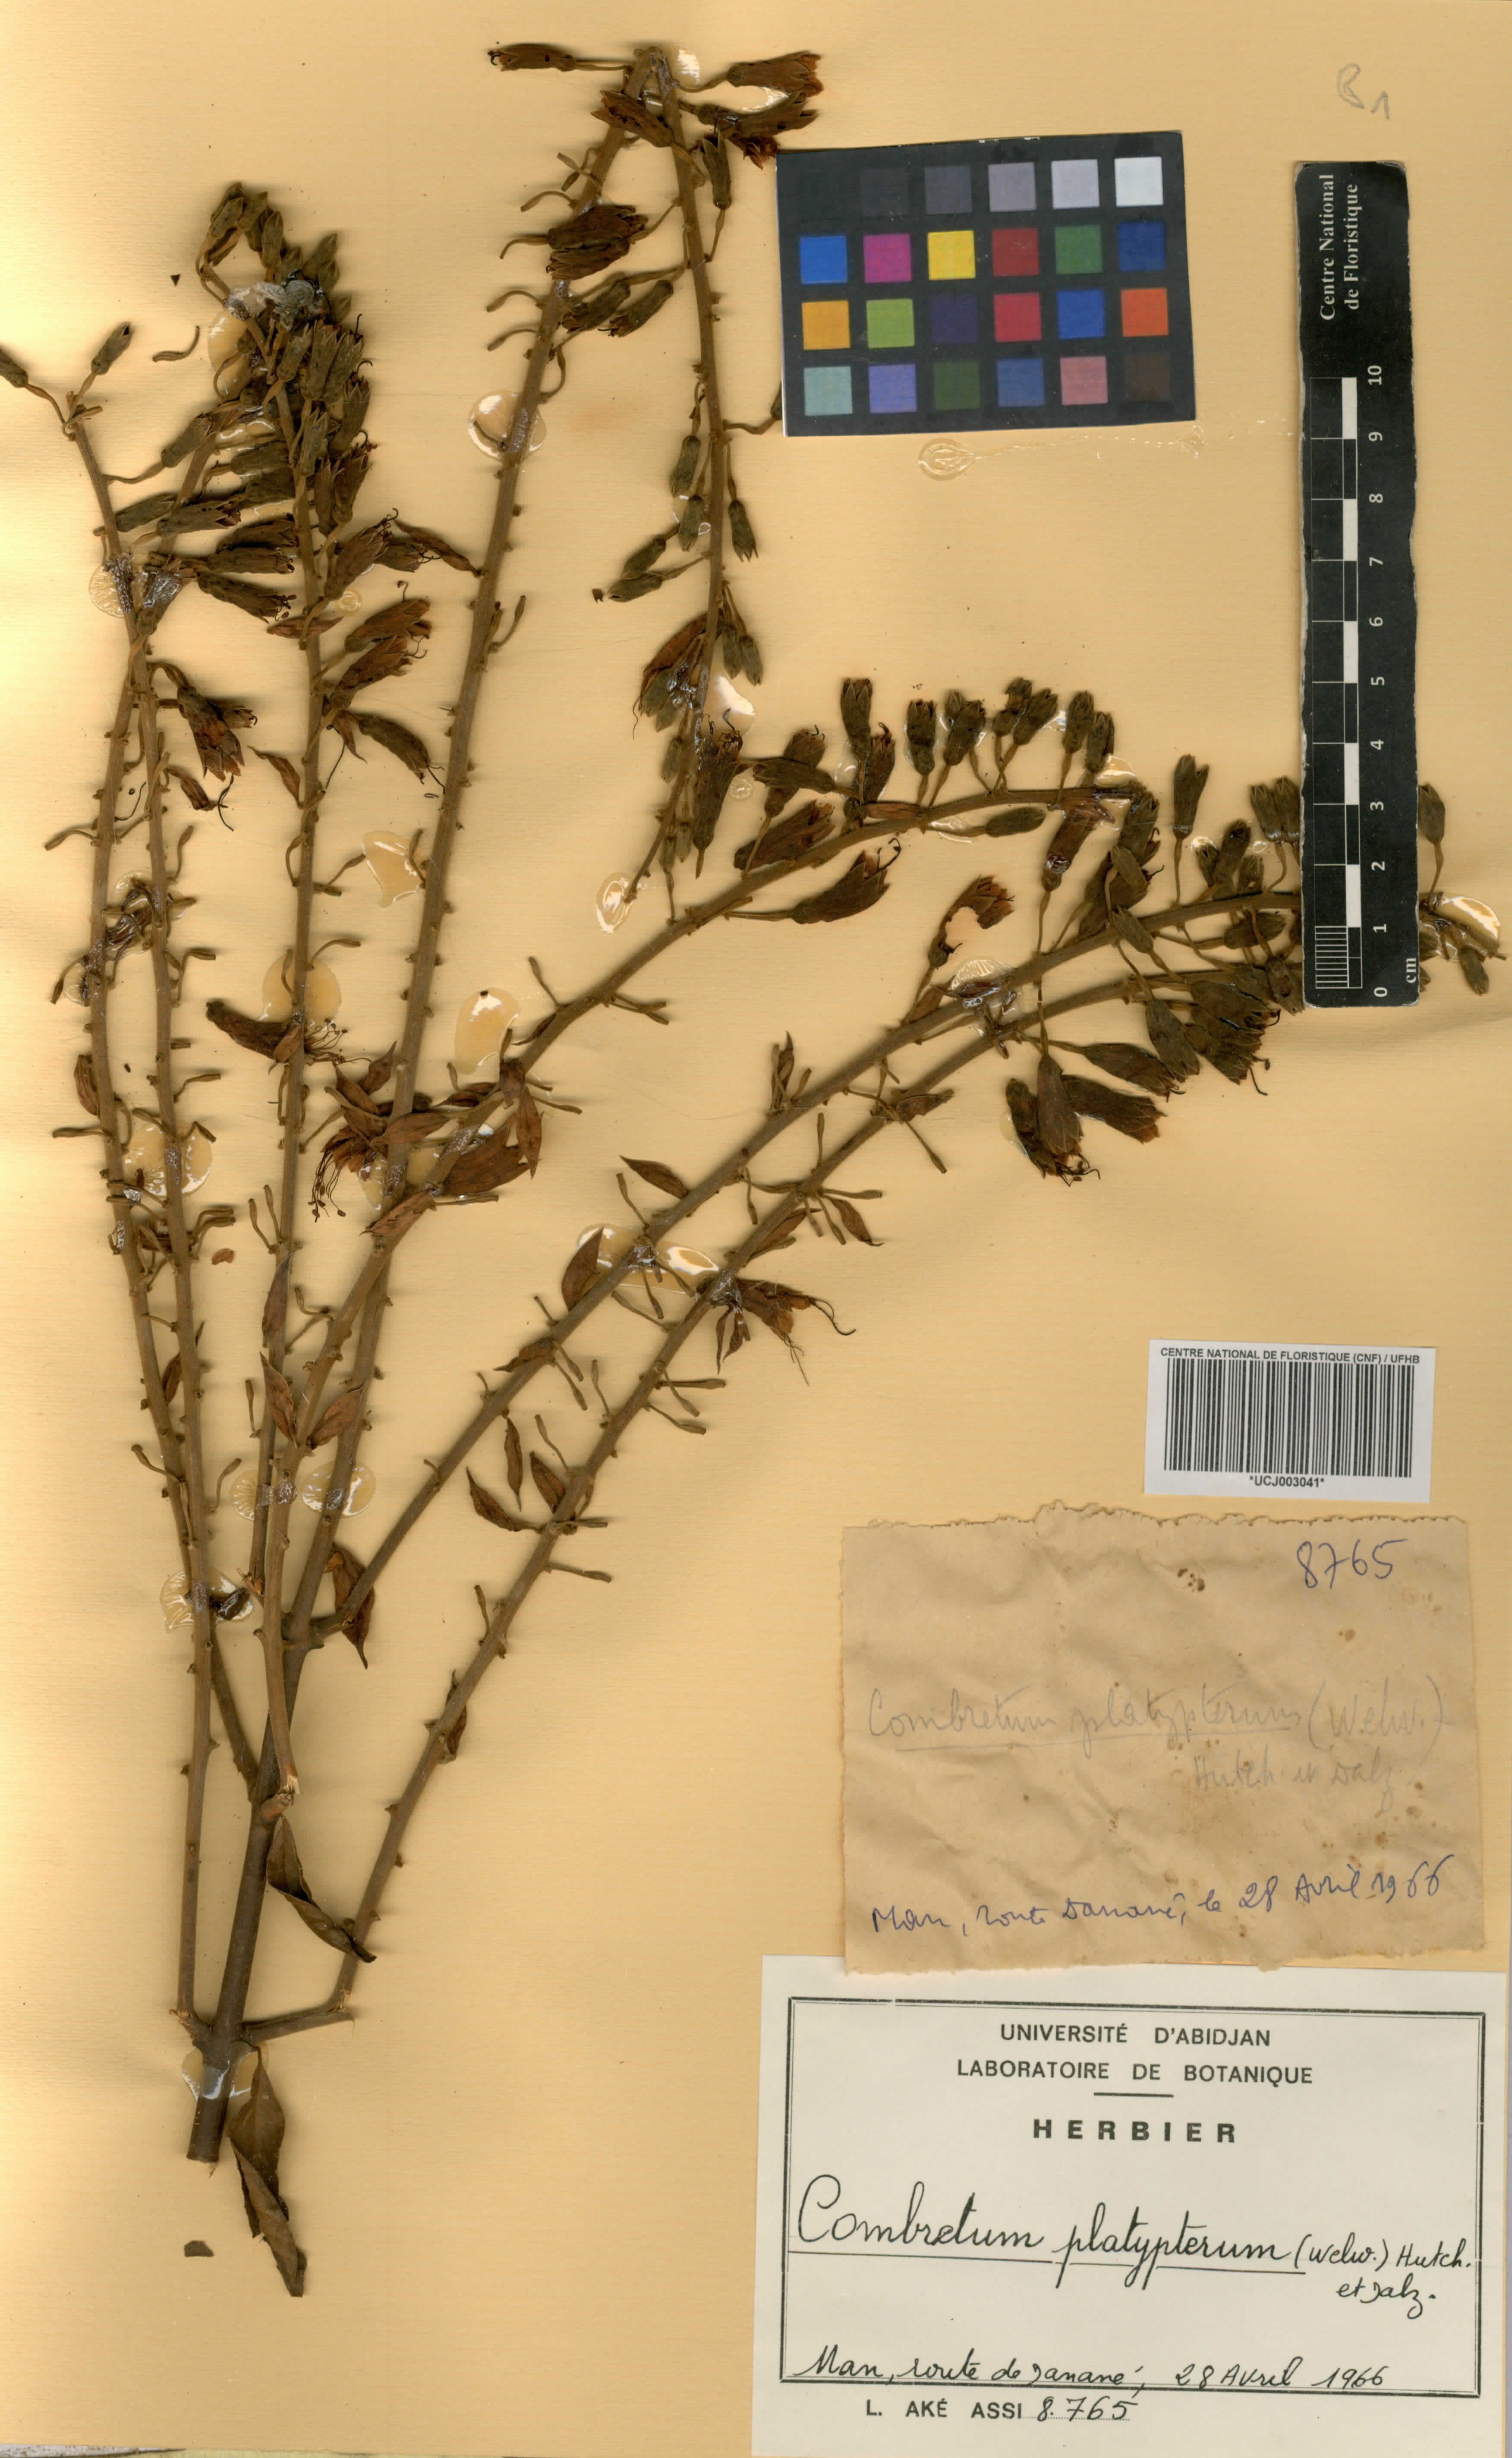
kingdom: Plantae
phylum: Tracheophyta
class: Magnoliopsida
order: Myrtales
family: Combretaceae
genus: Combretum
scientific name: Combretum platypterum
